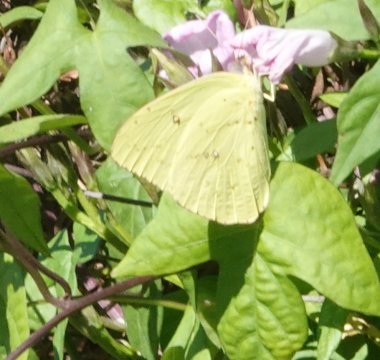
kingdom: Animalia
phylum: Arthropoda
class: Insecta
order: Lepidoptera
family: Pieridae
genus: Phoebis
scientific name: Phoebis sennae
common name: Cloudless Sulphur
